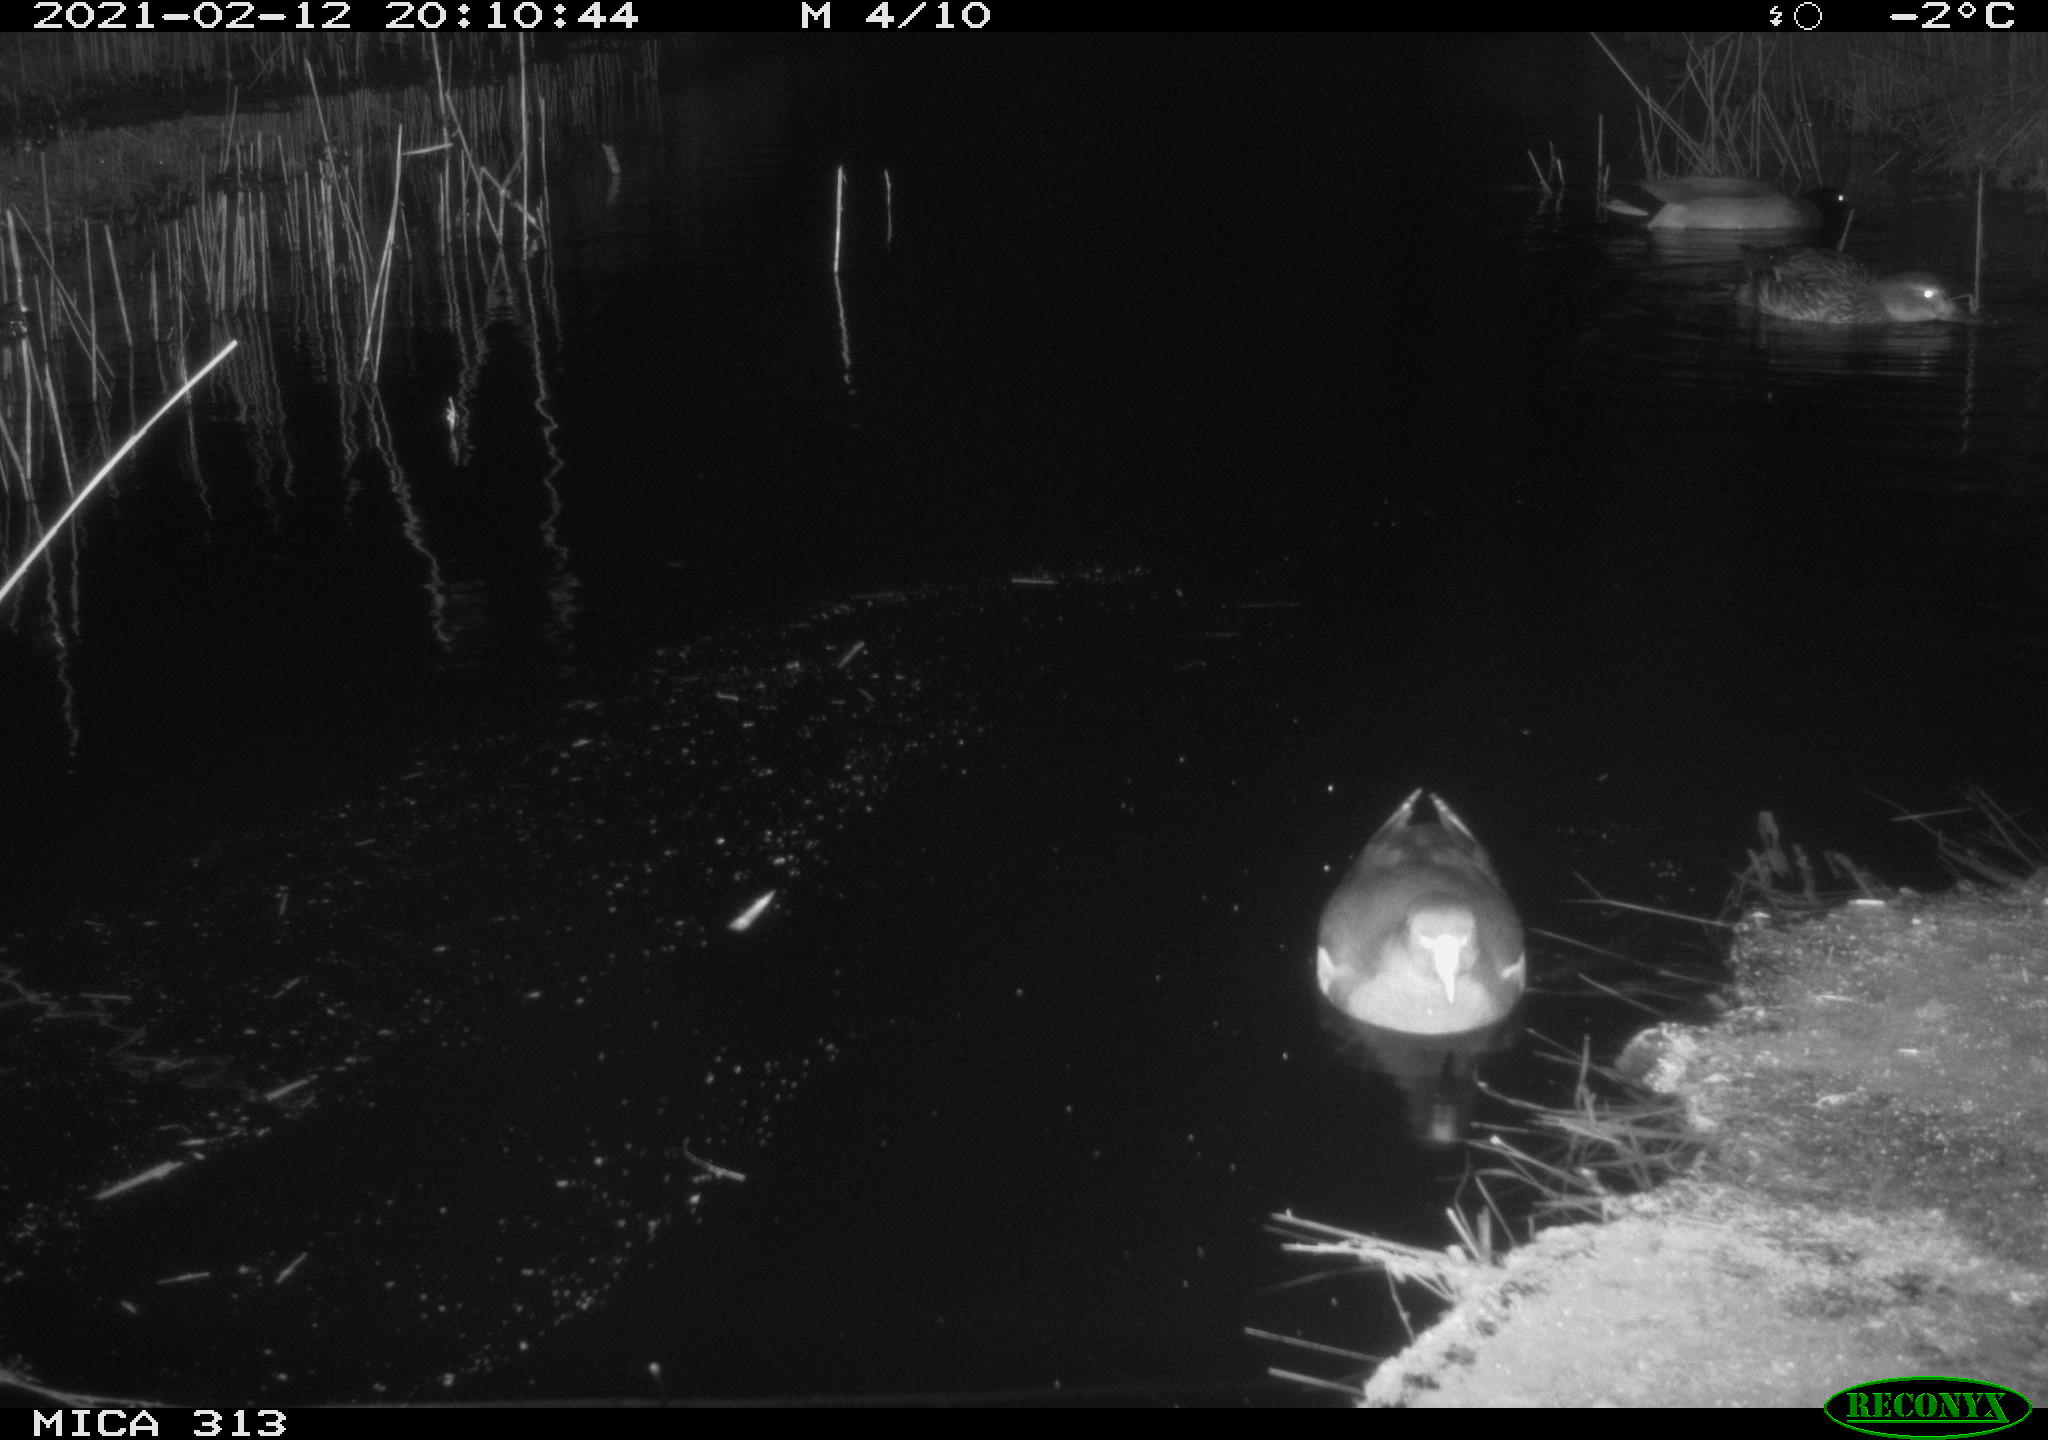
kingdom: Animalia
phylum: Chordata
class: Aves
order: Gruiformes
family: Rallidae
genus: Gallinula
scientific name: Gallinula chloropus
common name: Common moorhen
